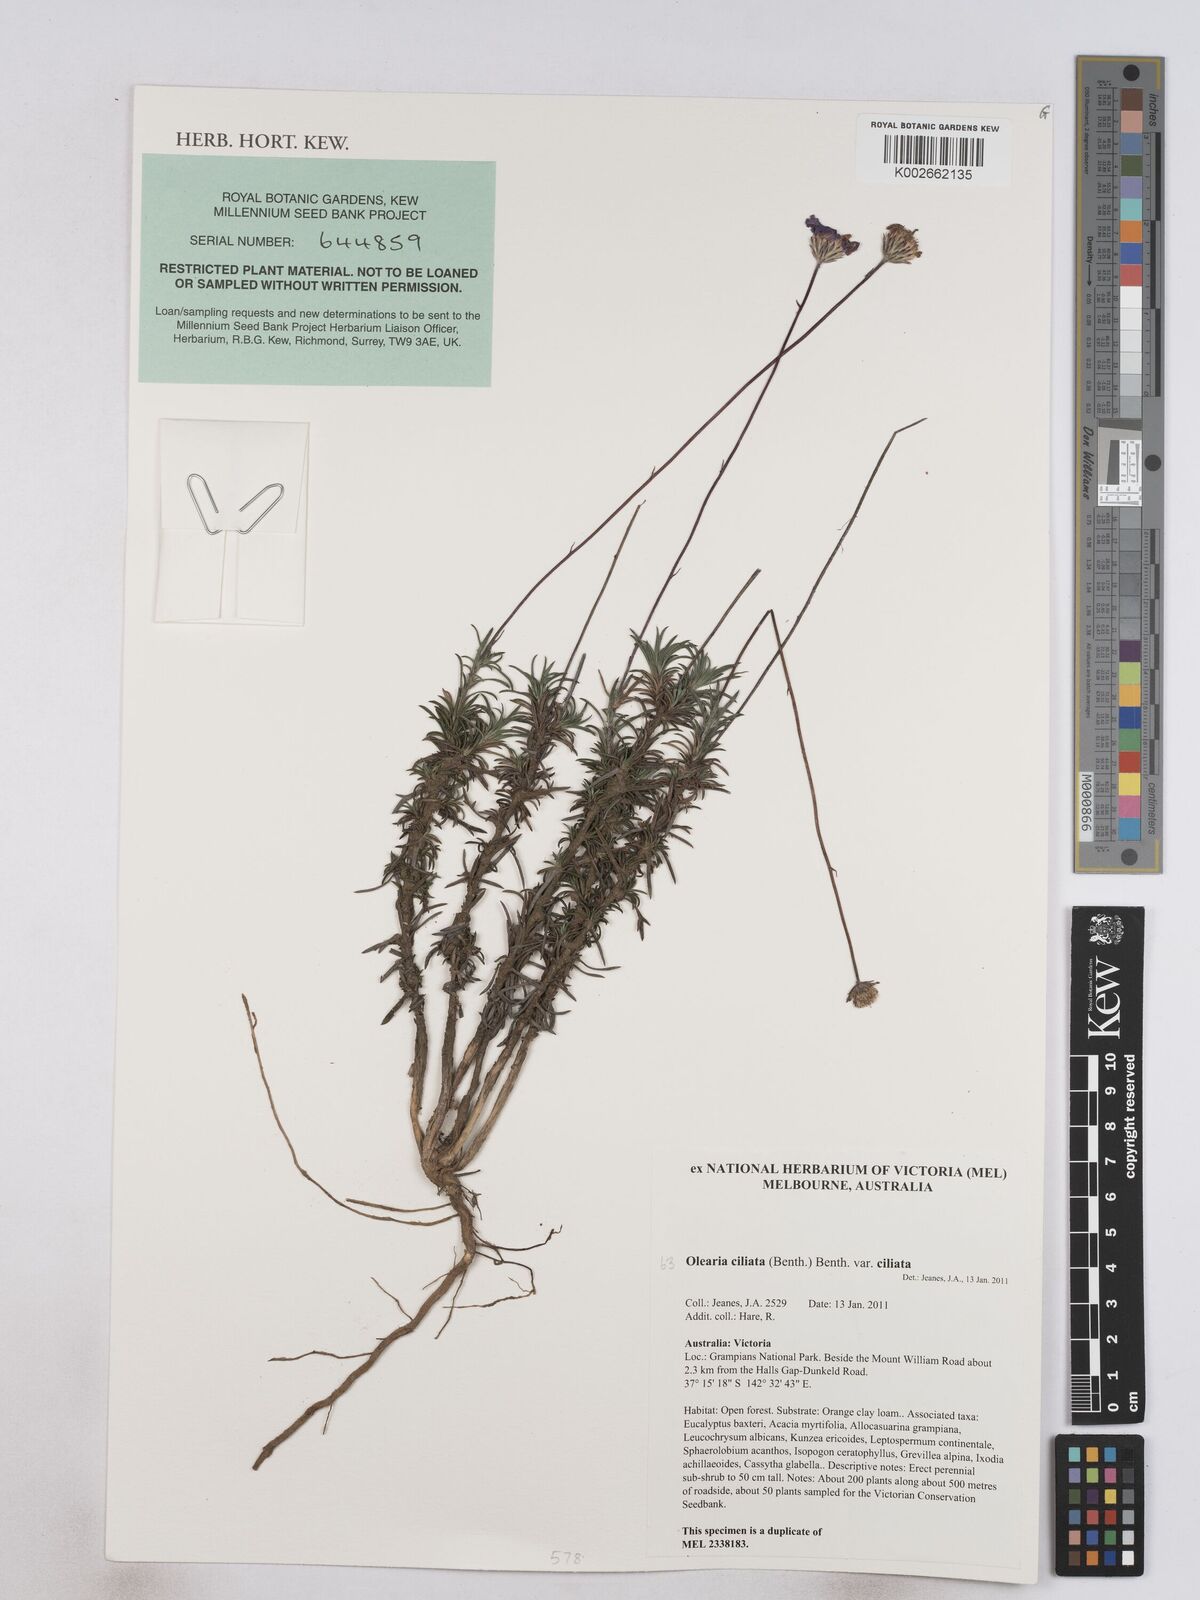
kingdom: Plantae
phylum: Tracheophyta
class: Magnoliopsida
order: Asterales
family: Asteraceae
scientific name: Asteraceae
